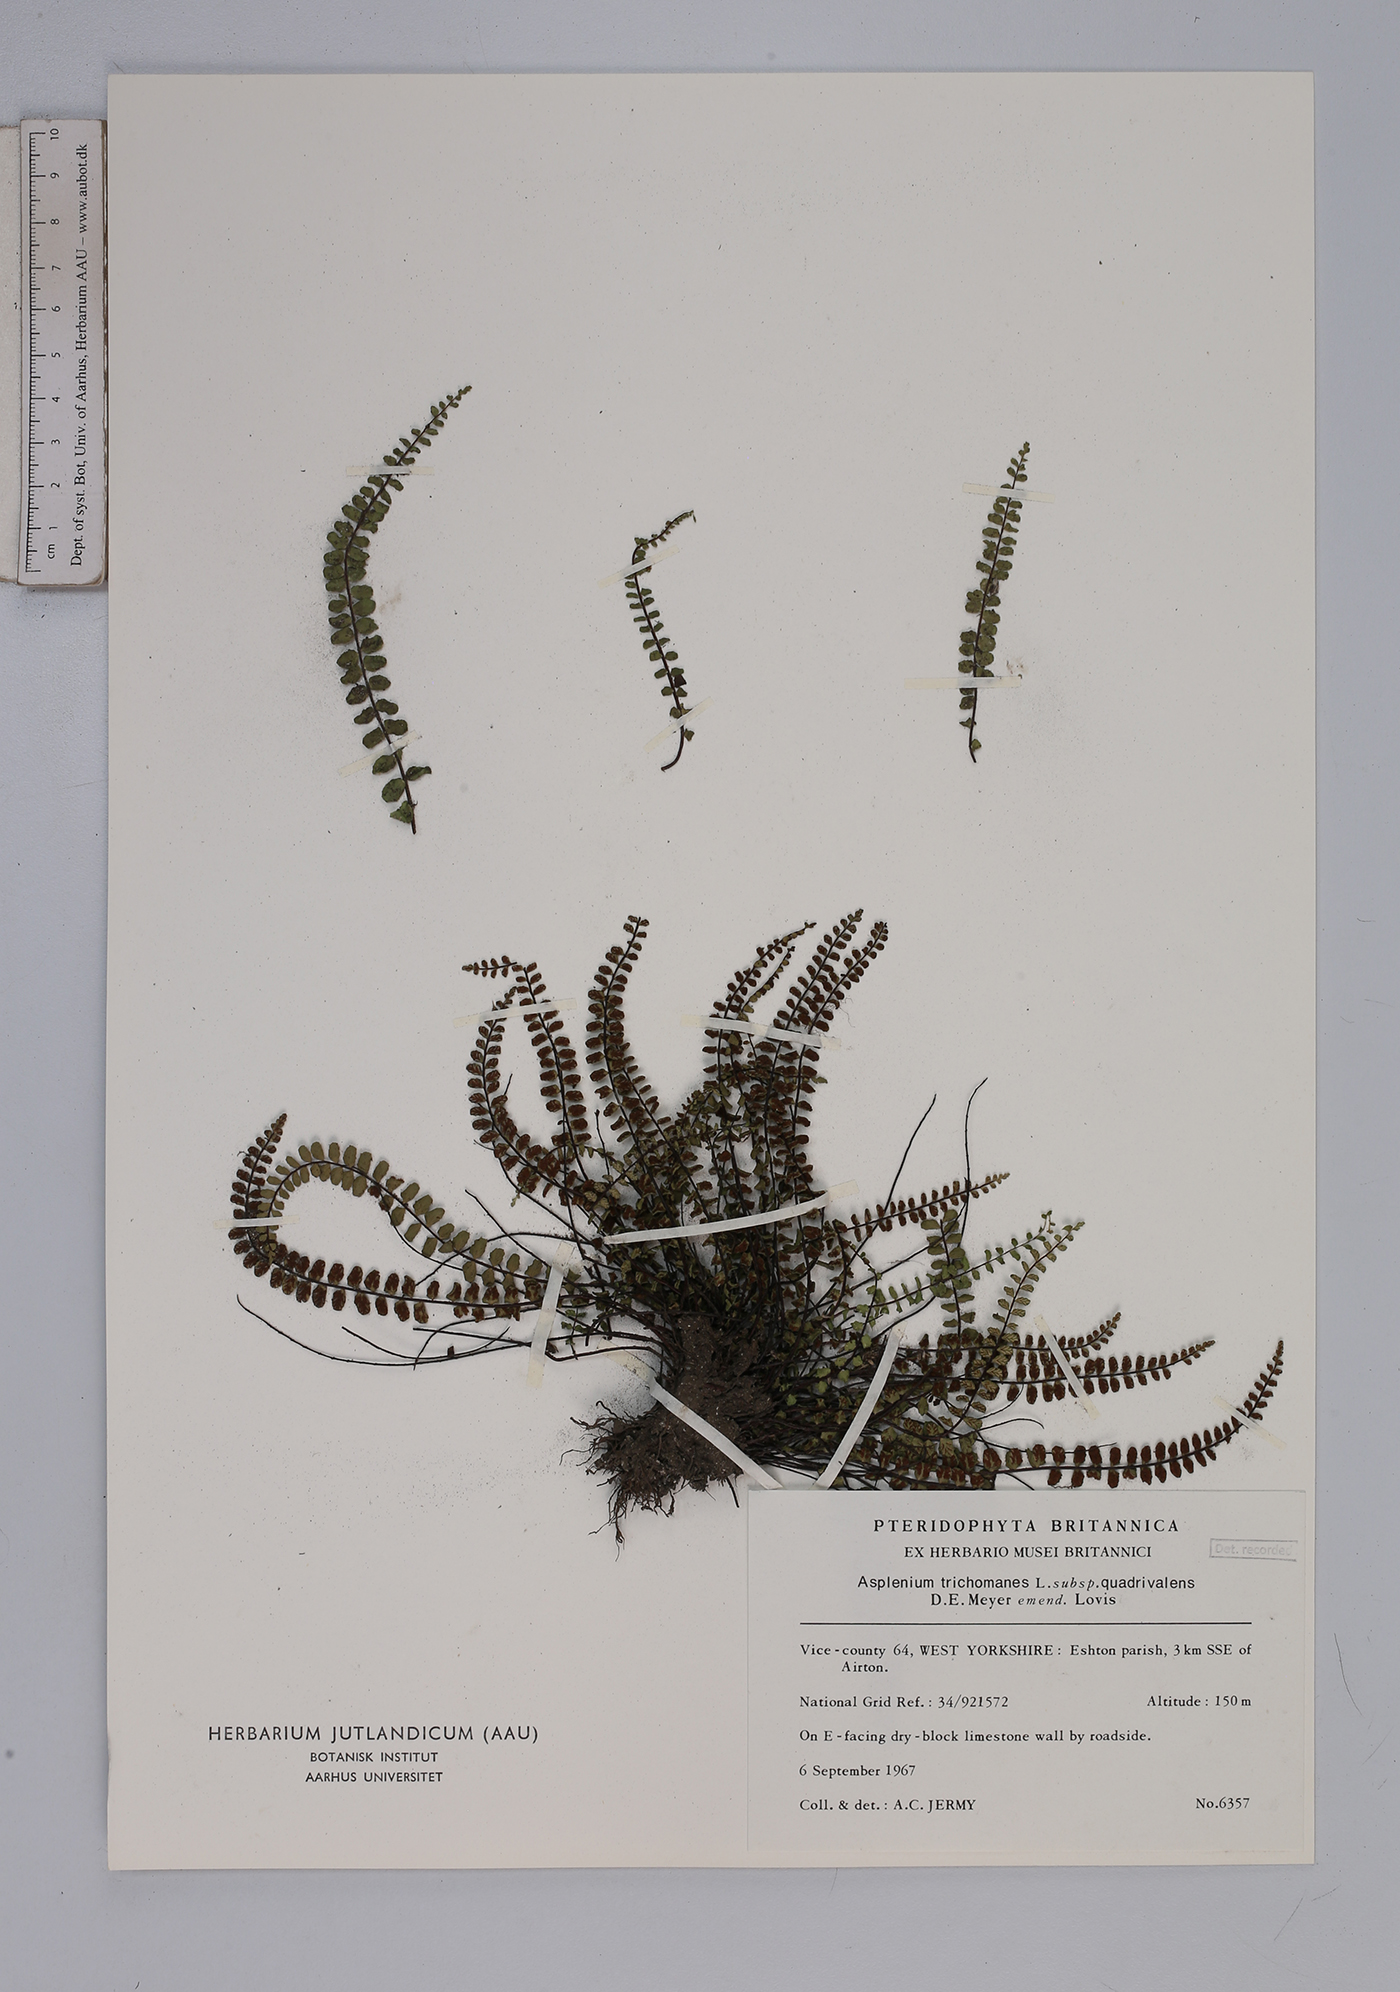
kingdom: Plantae
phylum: Tracheophyta
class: Polypodiopsida
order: Polypodiales
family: Aspleniaceae
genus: Asplenium
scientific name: Asplenium trichomanes
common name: Maidenhair spleenwort
